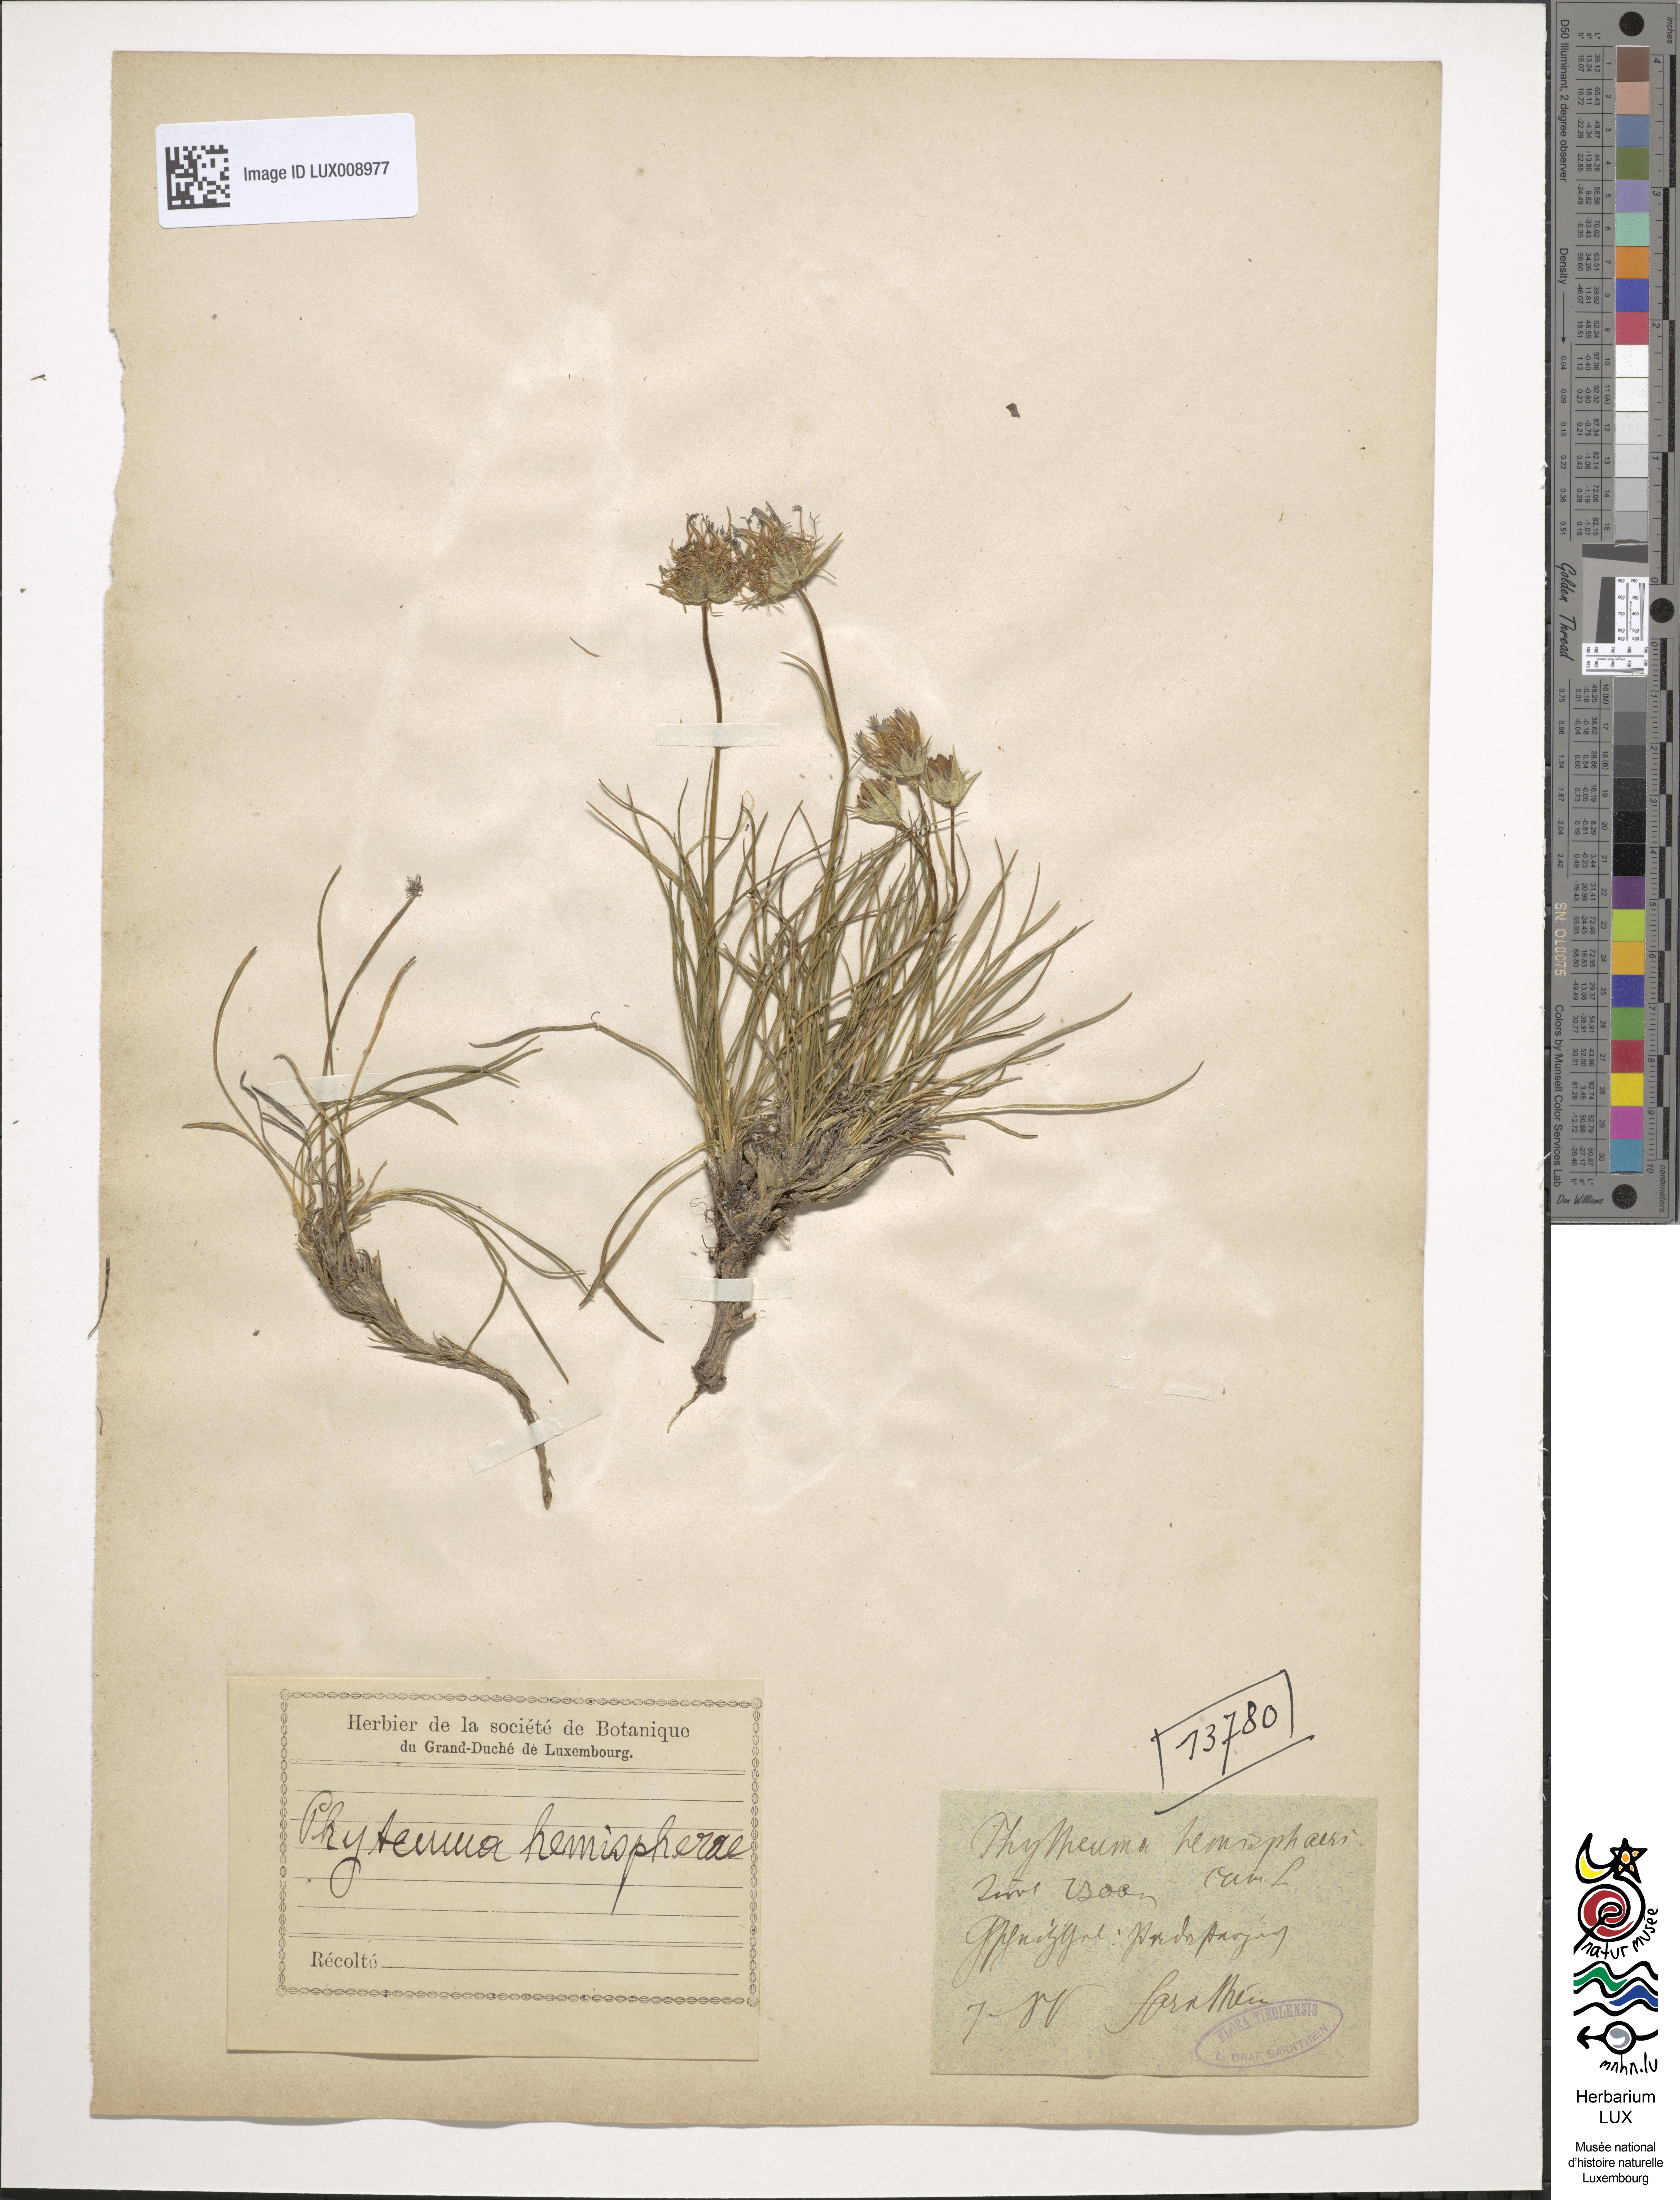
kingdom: Plantae
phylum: Tracheophyta
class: Magnoliopsida
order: Asterales
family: Campanulaceae
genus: Phyteuma
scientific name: Phyteuma hemisphaericum
